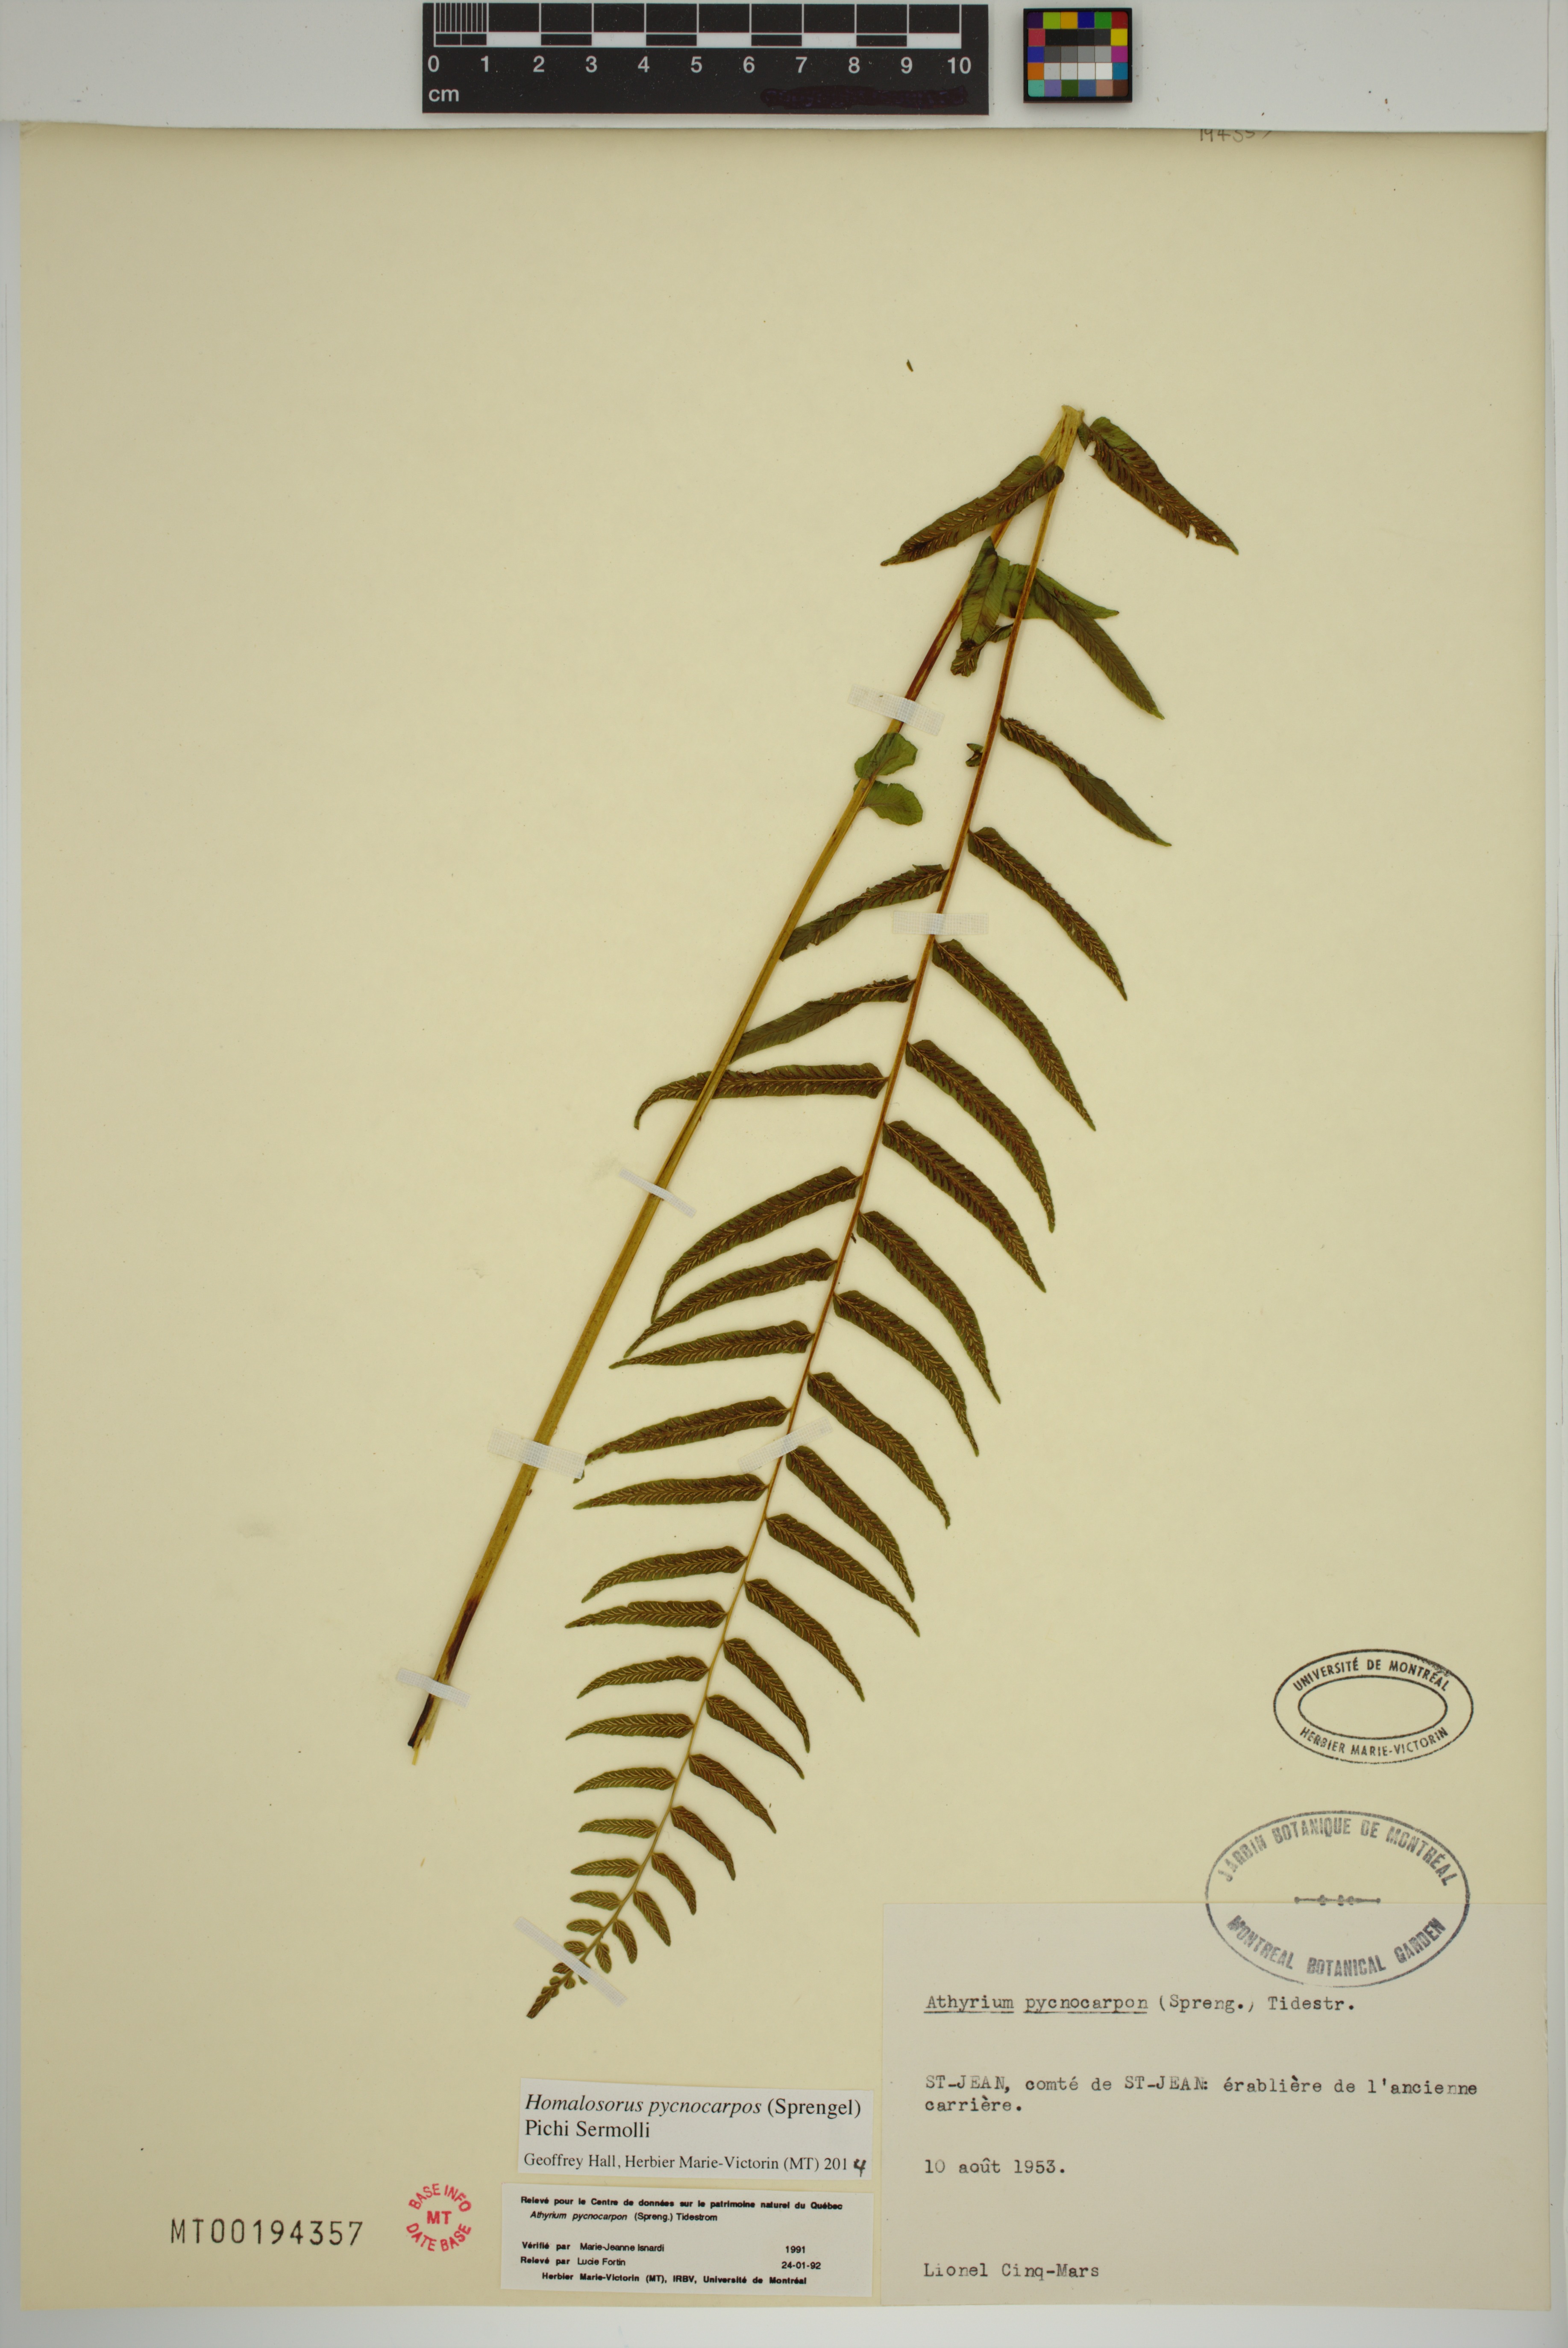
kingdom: Plantae
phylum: Tracheophyta
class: Polypodiopsida
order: Polypodiales
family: Diplaziopsidaceae
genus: Homalosorus
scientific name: Homalosorus pycnocarpos
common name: Glade fern
